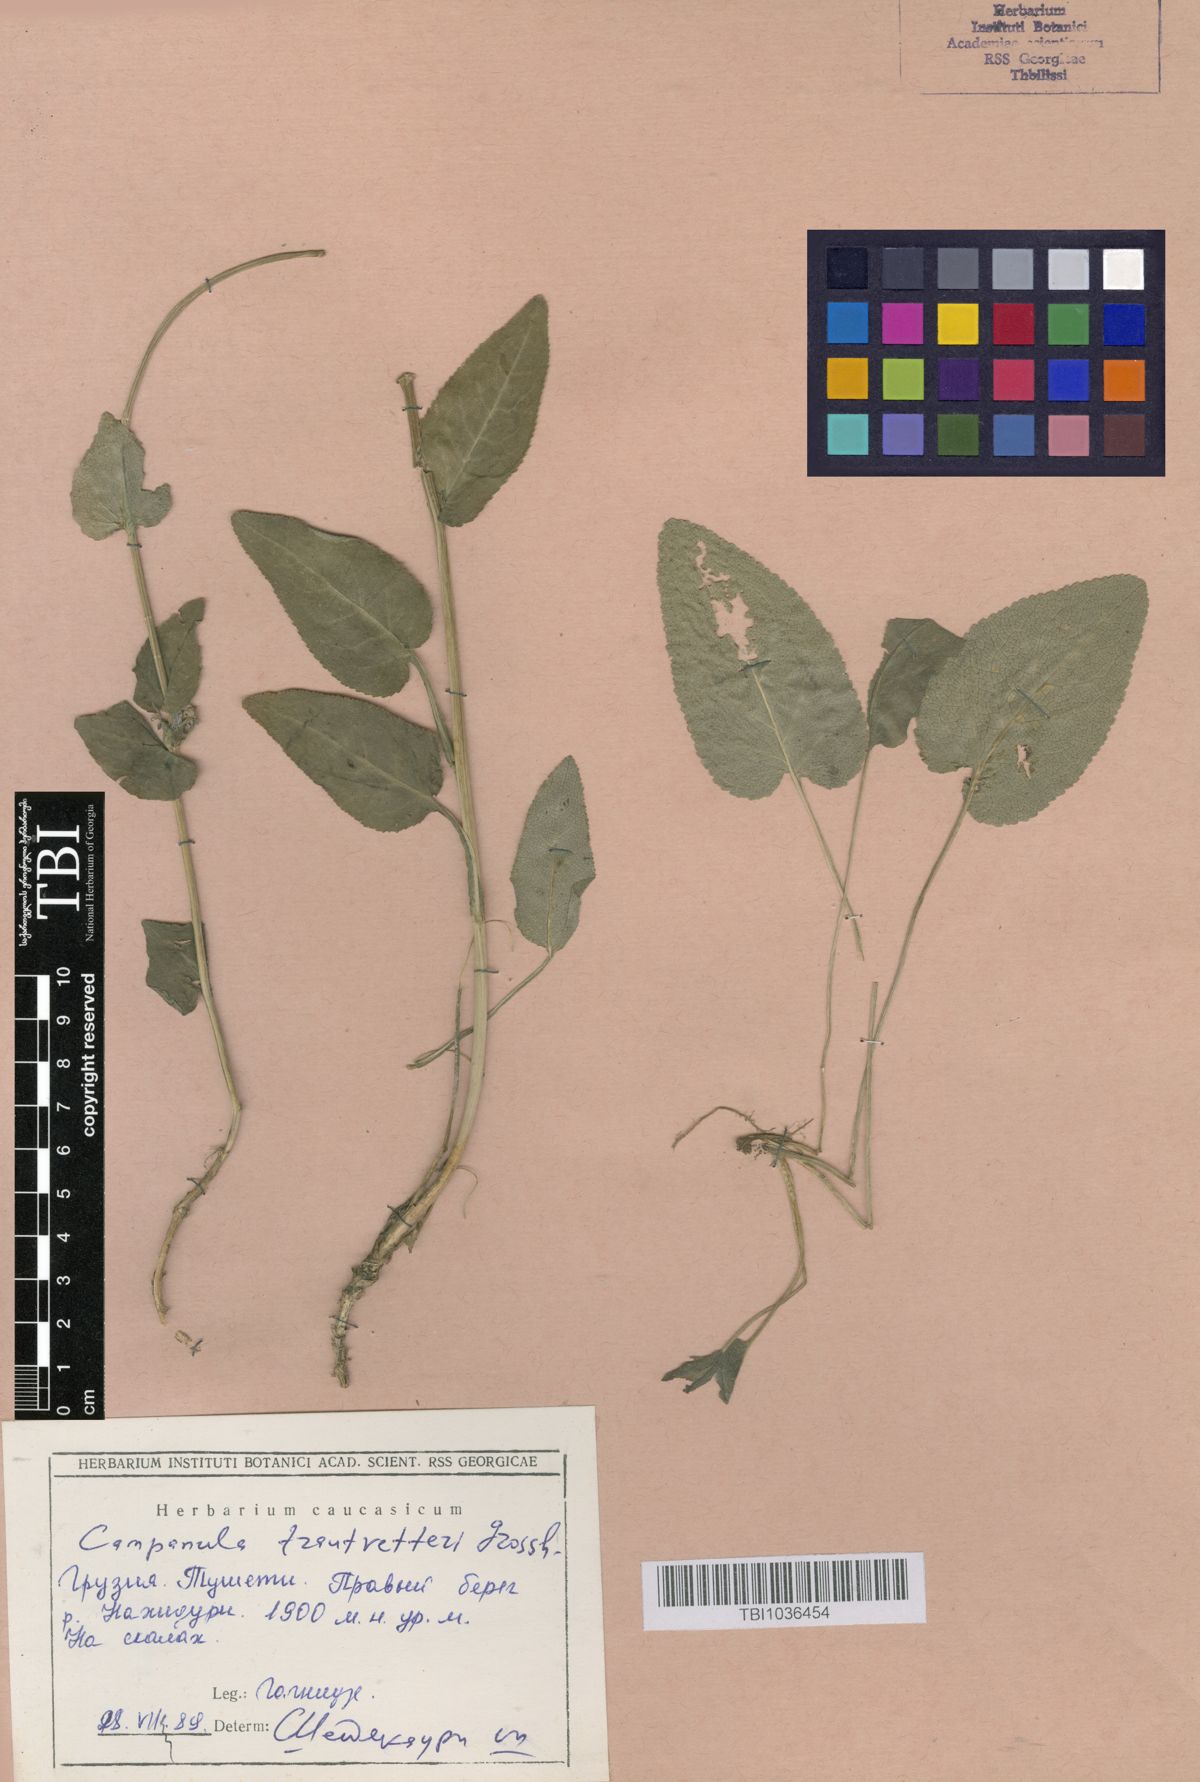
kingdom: Plantae
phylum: Tracheophyta
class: Magnoliopsida
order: Asterales
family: Campanulaceae
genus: Campanula
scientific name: Campanula glomerata
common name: Clustered bellflower
